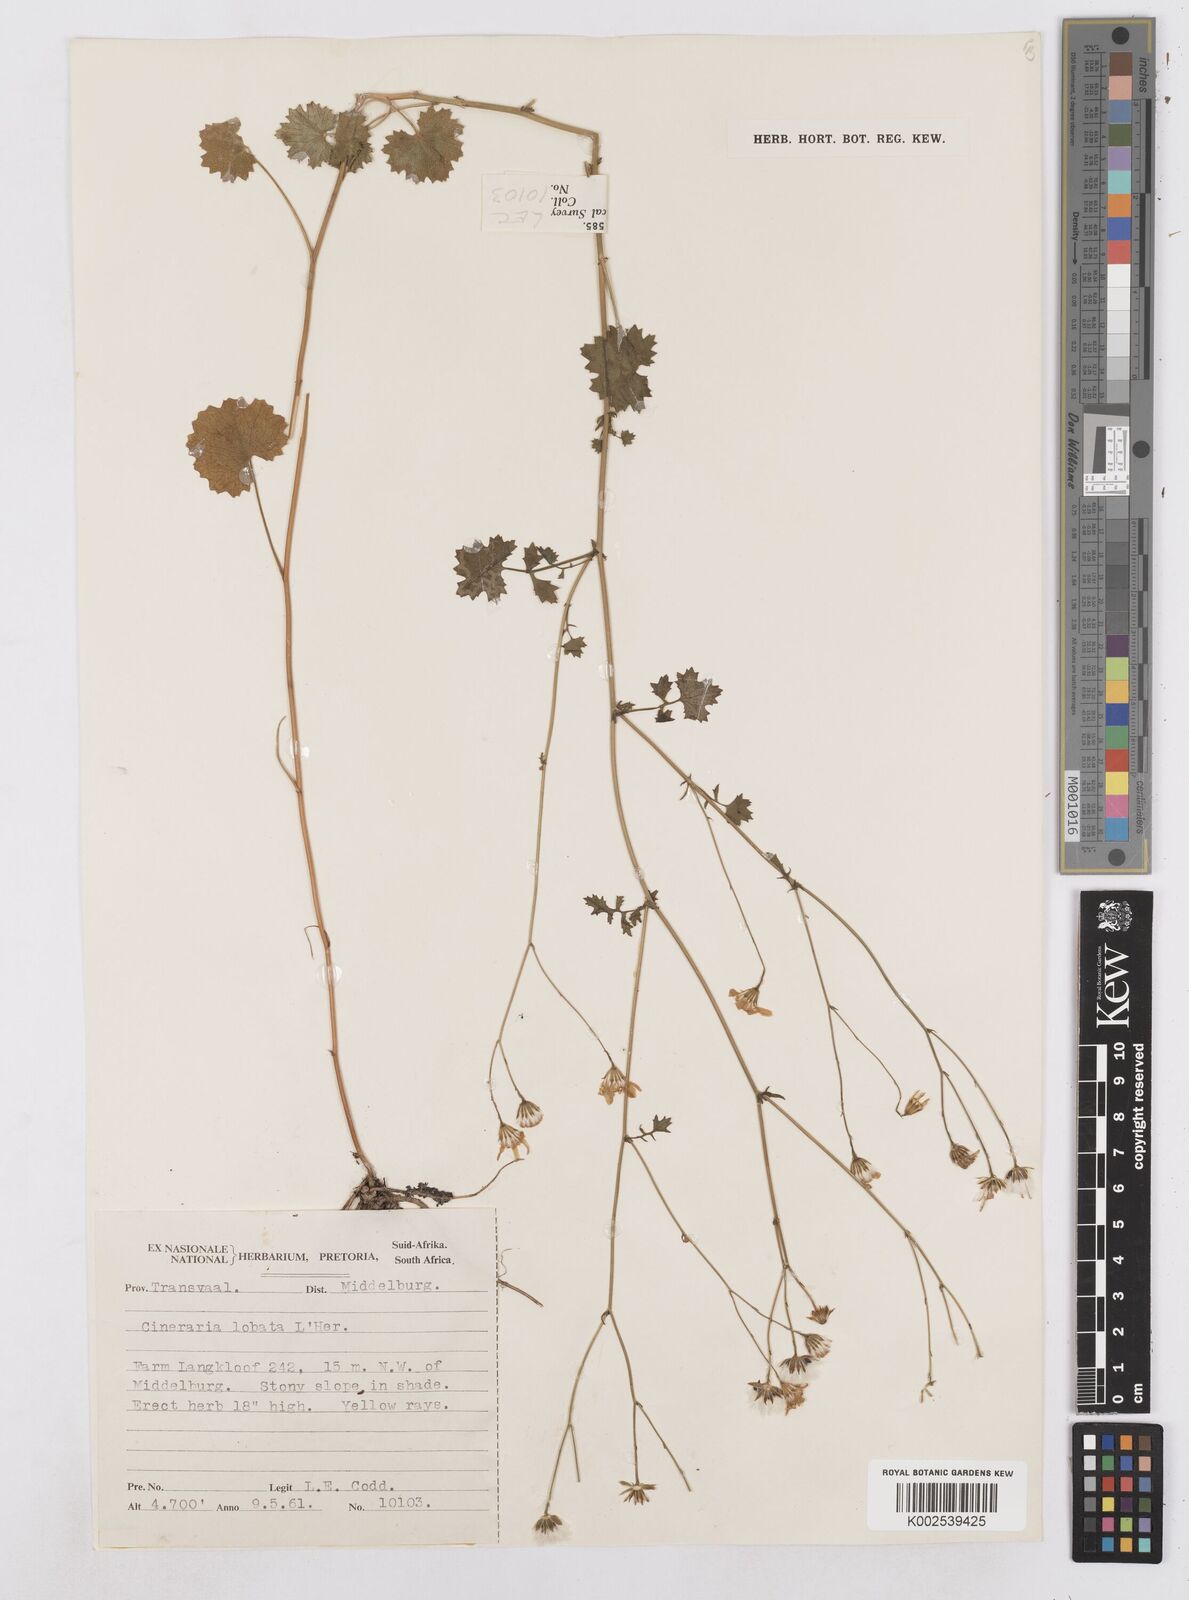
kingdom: Plantae
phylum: Tracheophyta
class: Magnoliopsida
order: Asterales
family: Asteraceae
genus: Cineraria
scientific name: Cineraria
